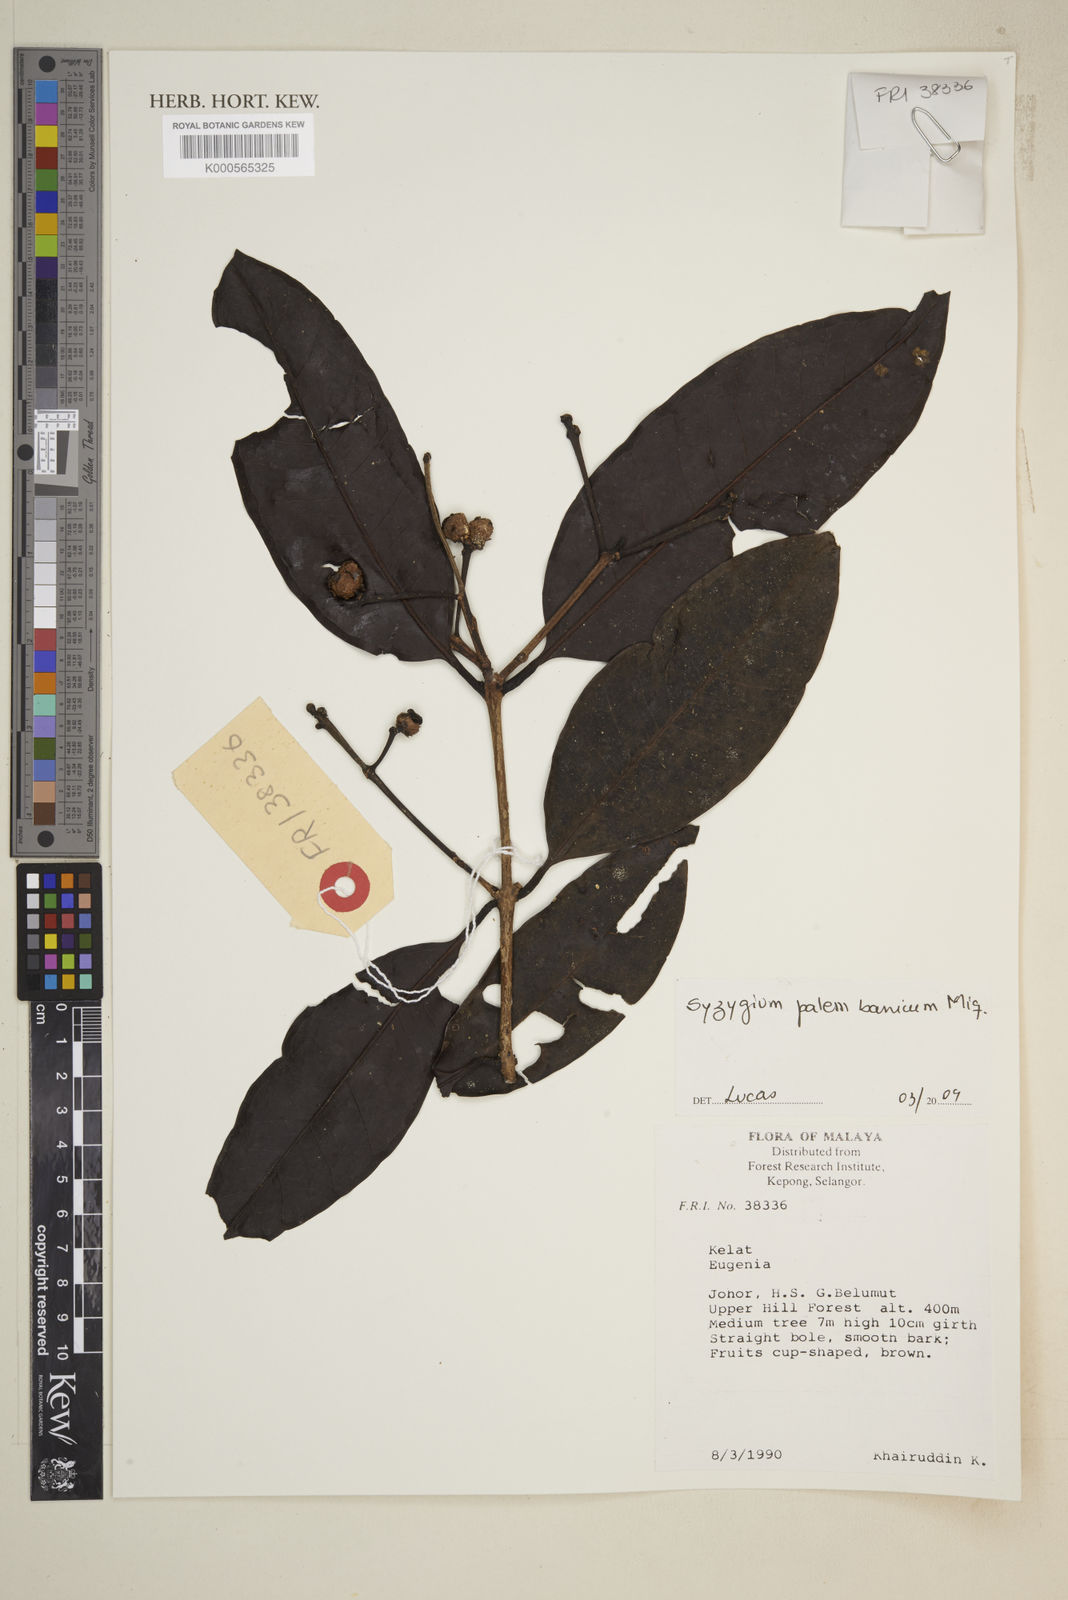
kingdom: Plantae
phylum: Tracheophyta
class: Magnoliopsida
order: Myrtales
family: Myrtaceae
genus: Syzygium
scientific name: Syzygium urceolatum
